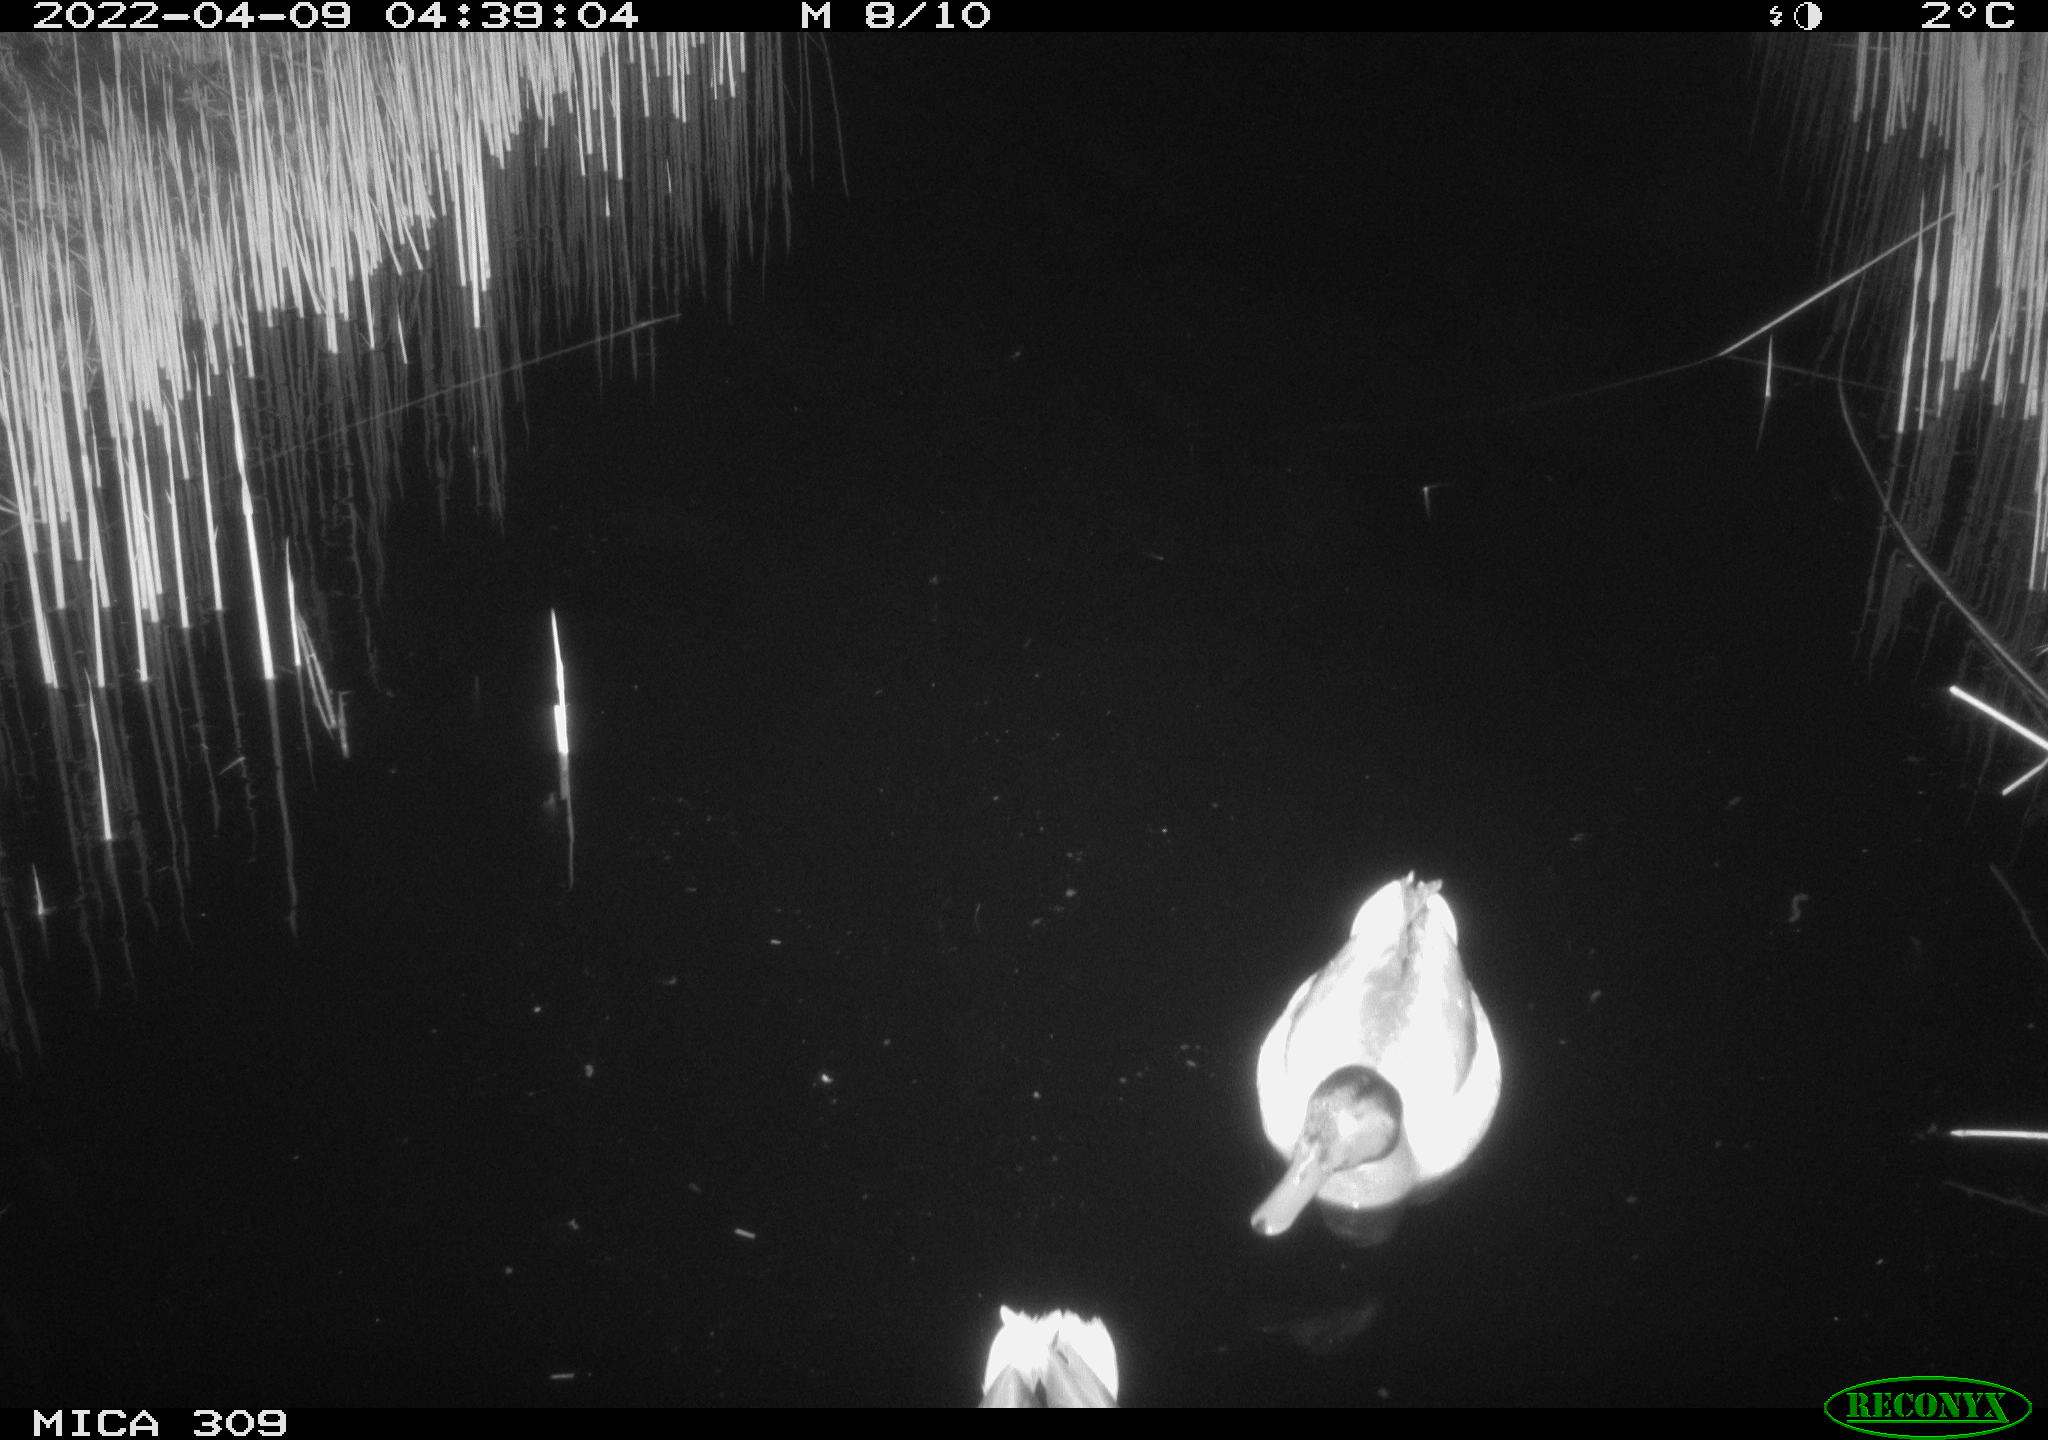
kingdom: Animalia
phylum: Chordata
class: Aves
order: Anseriformes
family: Anatidae
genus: Anas
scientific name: Anas platyrhynchos
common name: Mallard
